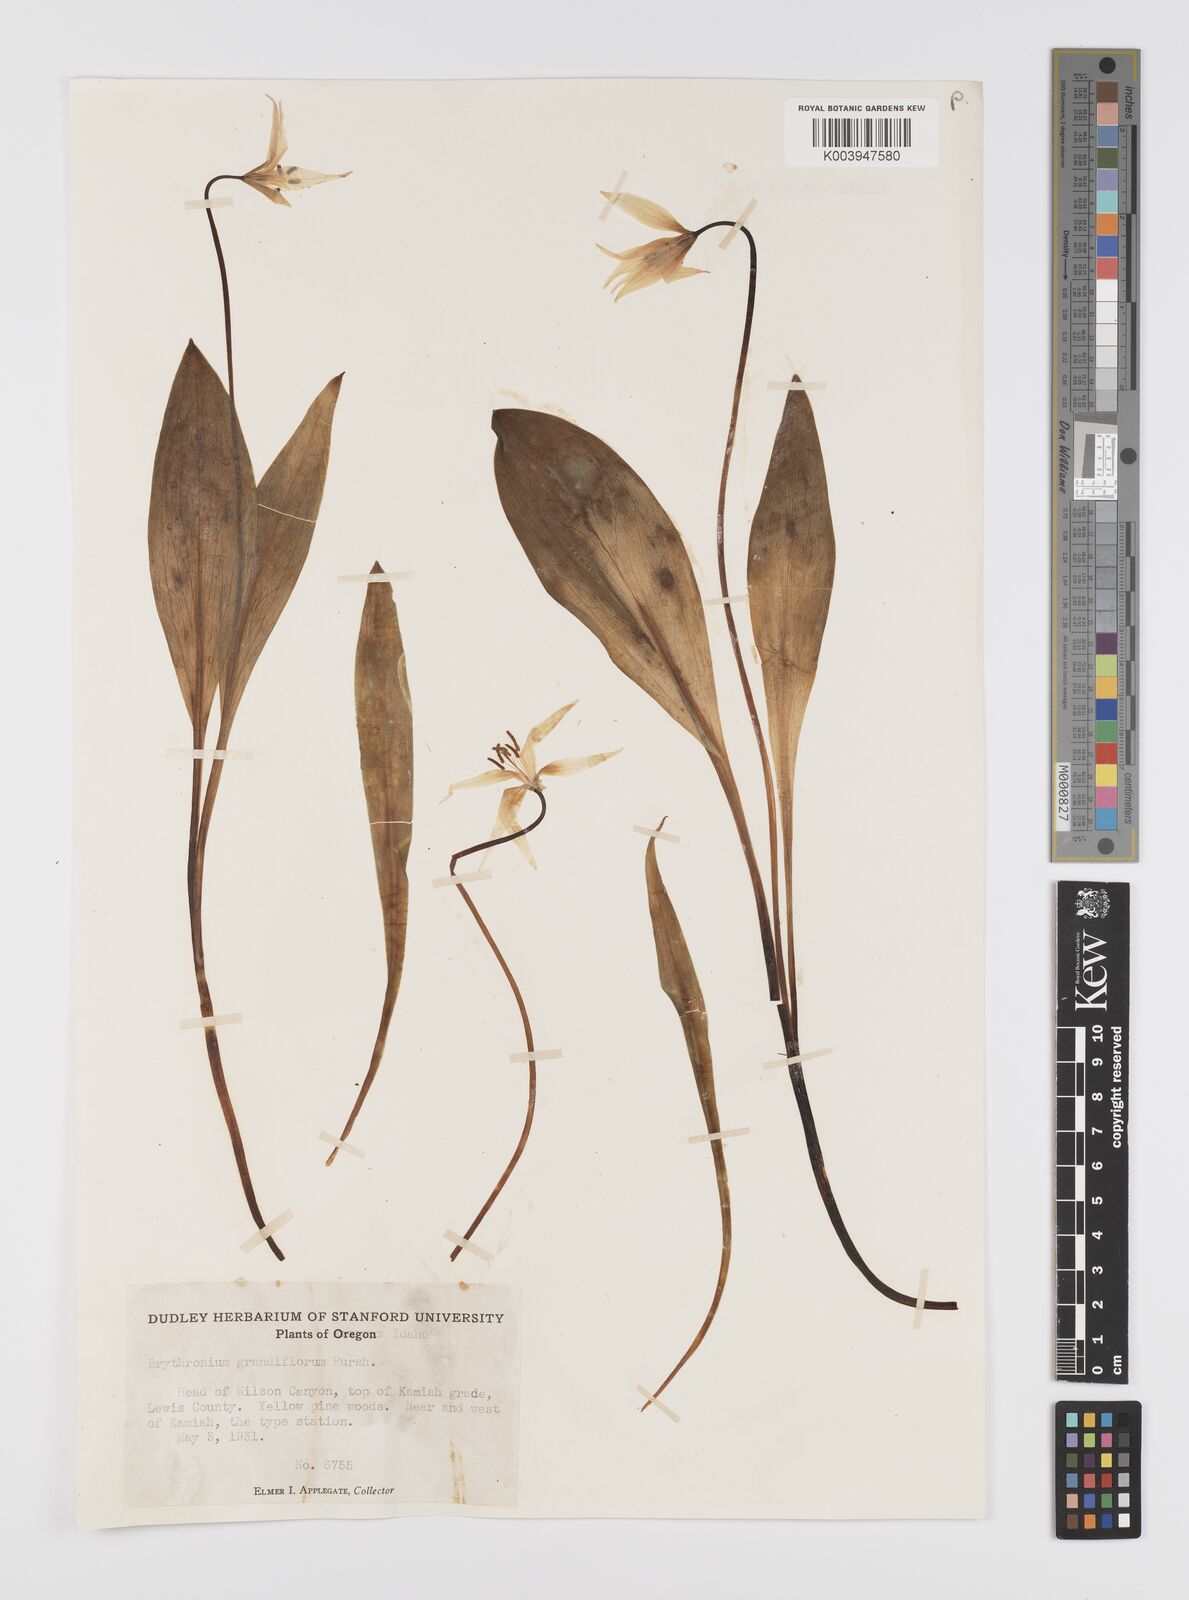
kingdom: Plantae
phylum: Tracheophyta
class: Liliopsida
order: Liliales
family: Liliaceae
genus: Erythronium
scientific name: Erythronium grandiflorum
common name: Avalanche-lily
